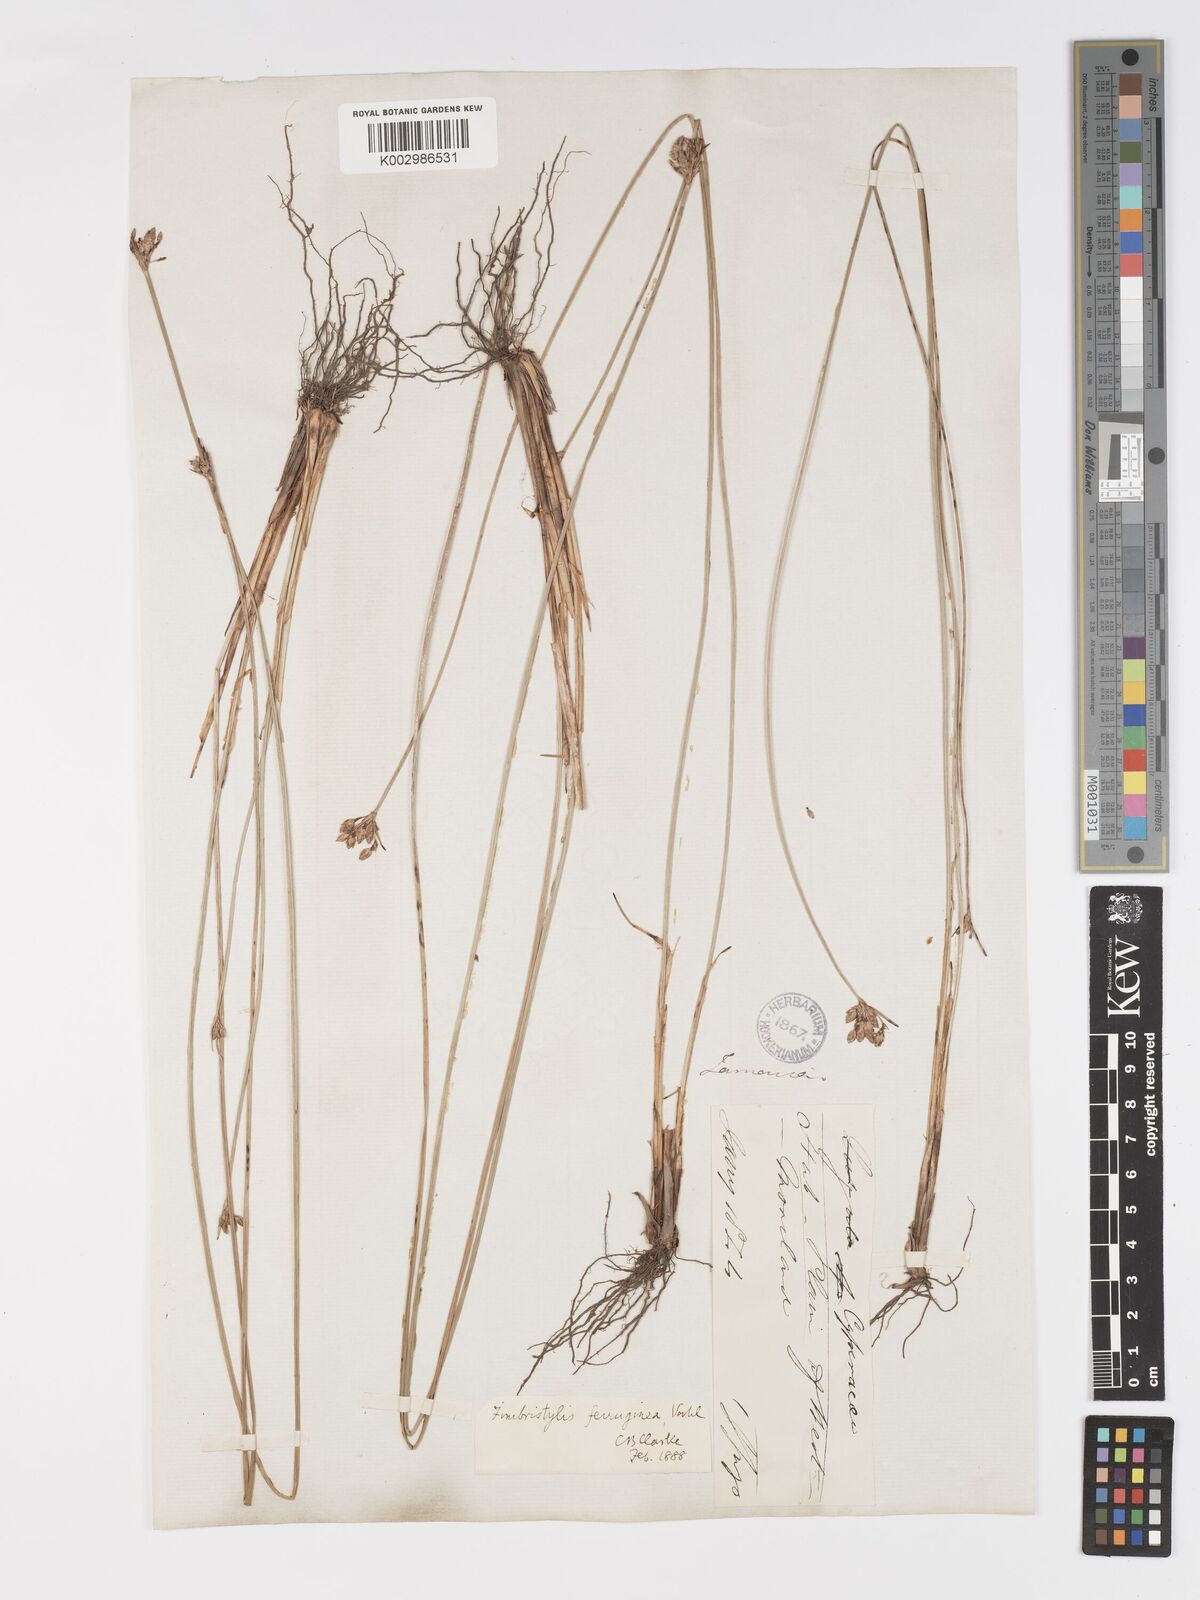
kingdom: Plantae
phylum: Tracheophyta
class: Liliopsida
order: Poales
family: Cyperaceae
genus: Fimbristylis
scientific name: Fimbristylis ferruginea
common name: West indian fimbry
